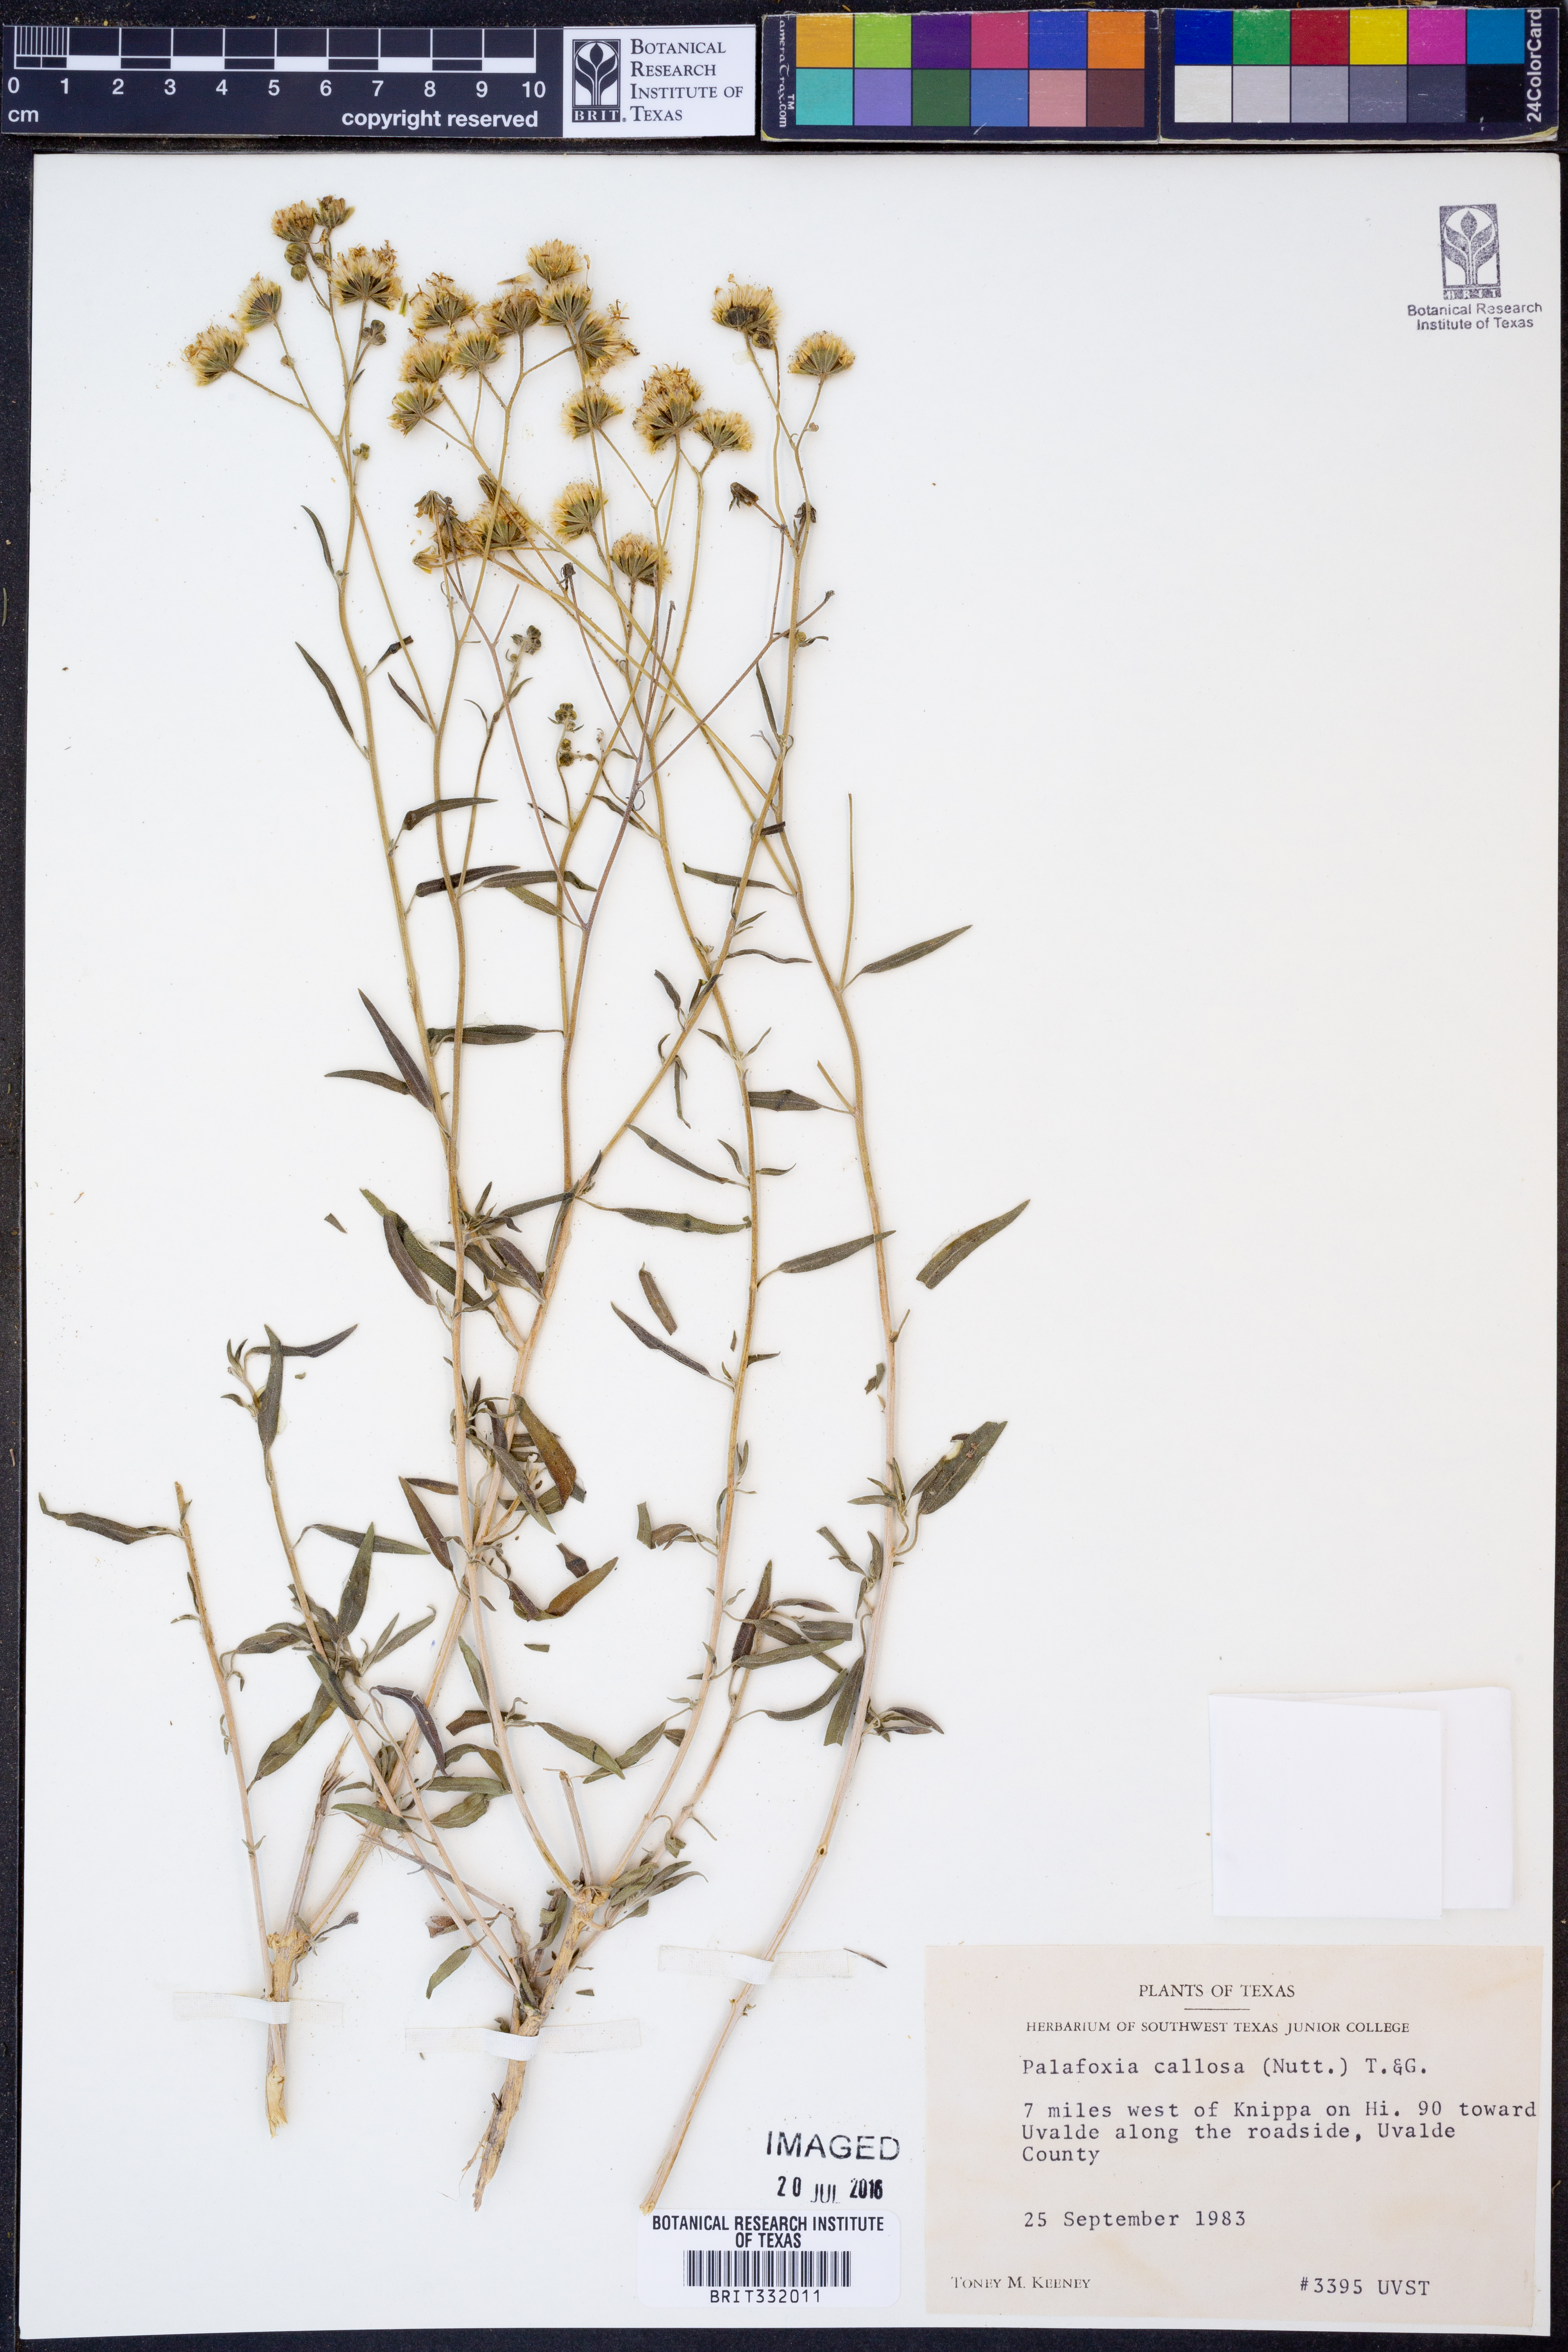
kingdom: Plantae
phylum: Tracheophyta
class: Magnoliopsida
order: Asterales
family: Asteraceae
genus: Palafoxia
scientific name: Palafoxia callosa
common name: Small palafox
